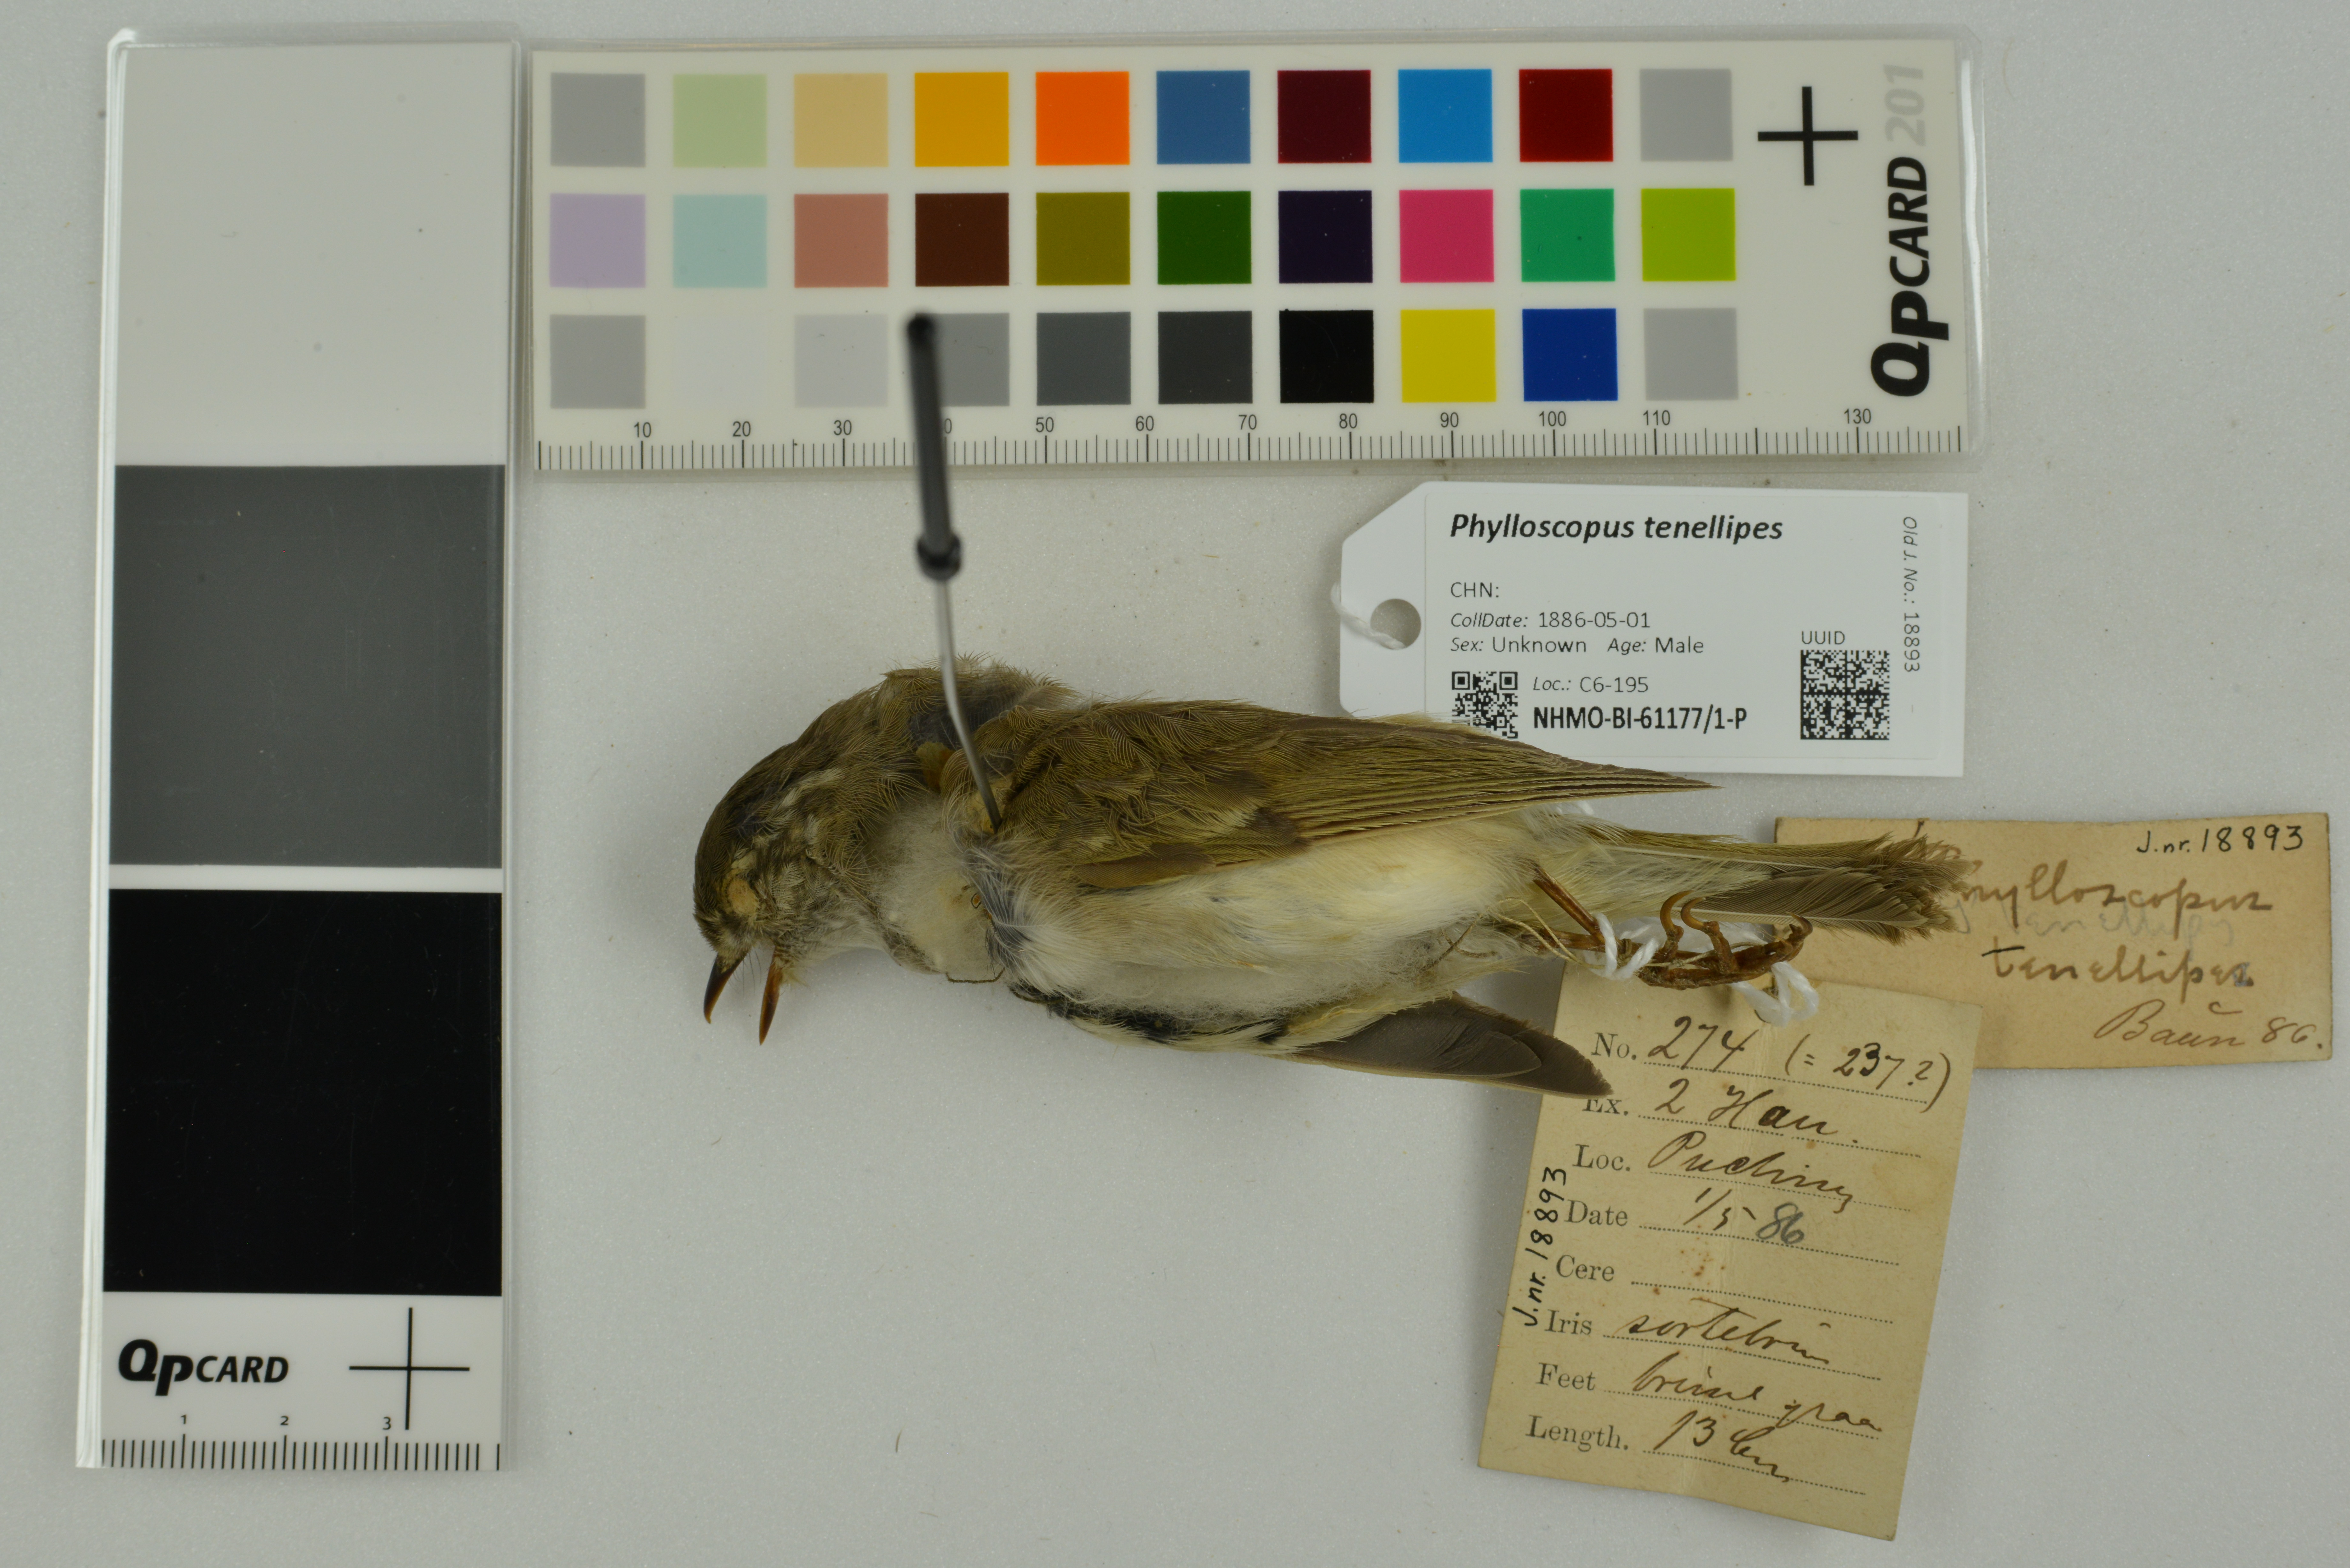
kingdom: Animalia
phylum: Chordata
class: Aves
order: Passeriformes
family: Phylloscopidae
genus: Phylloscopus
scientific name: Phylloscopus tenellipes
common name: Pale-legged leaf warbler
